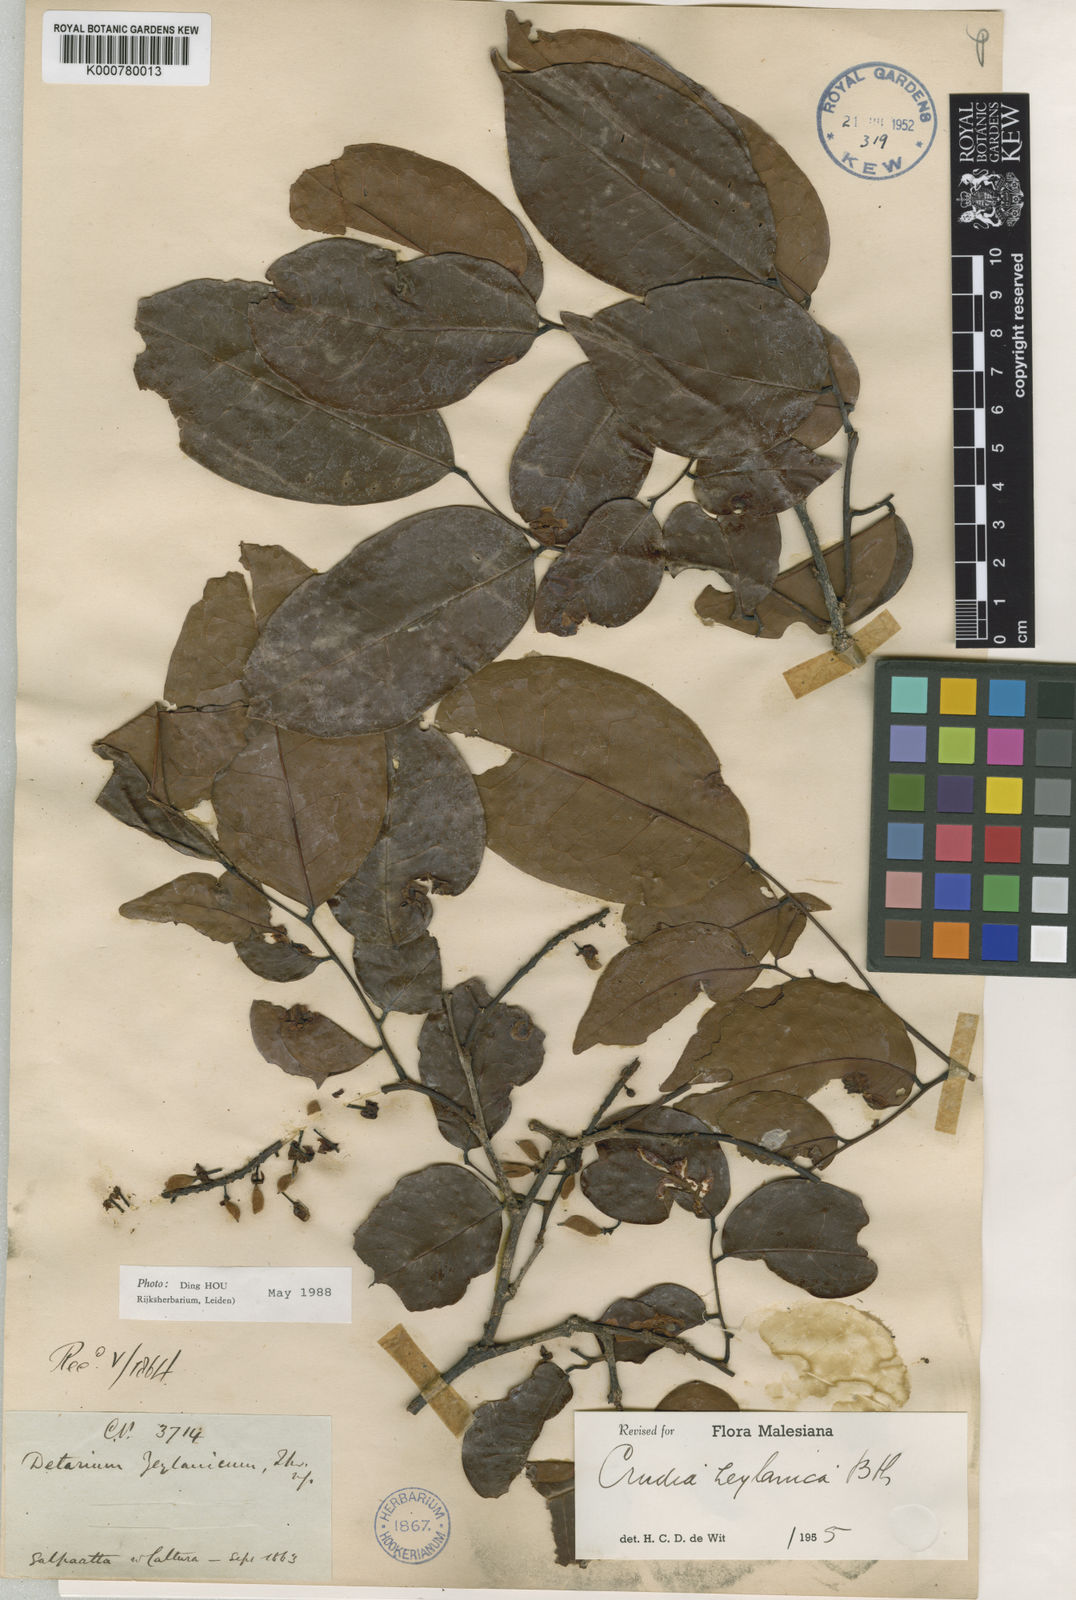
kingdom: Plantae
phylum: Tracheophyta
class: Magnoliopsida
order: Fabales
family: Fabaceae
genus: Crudia
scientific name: Crudia zeylanica
